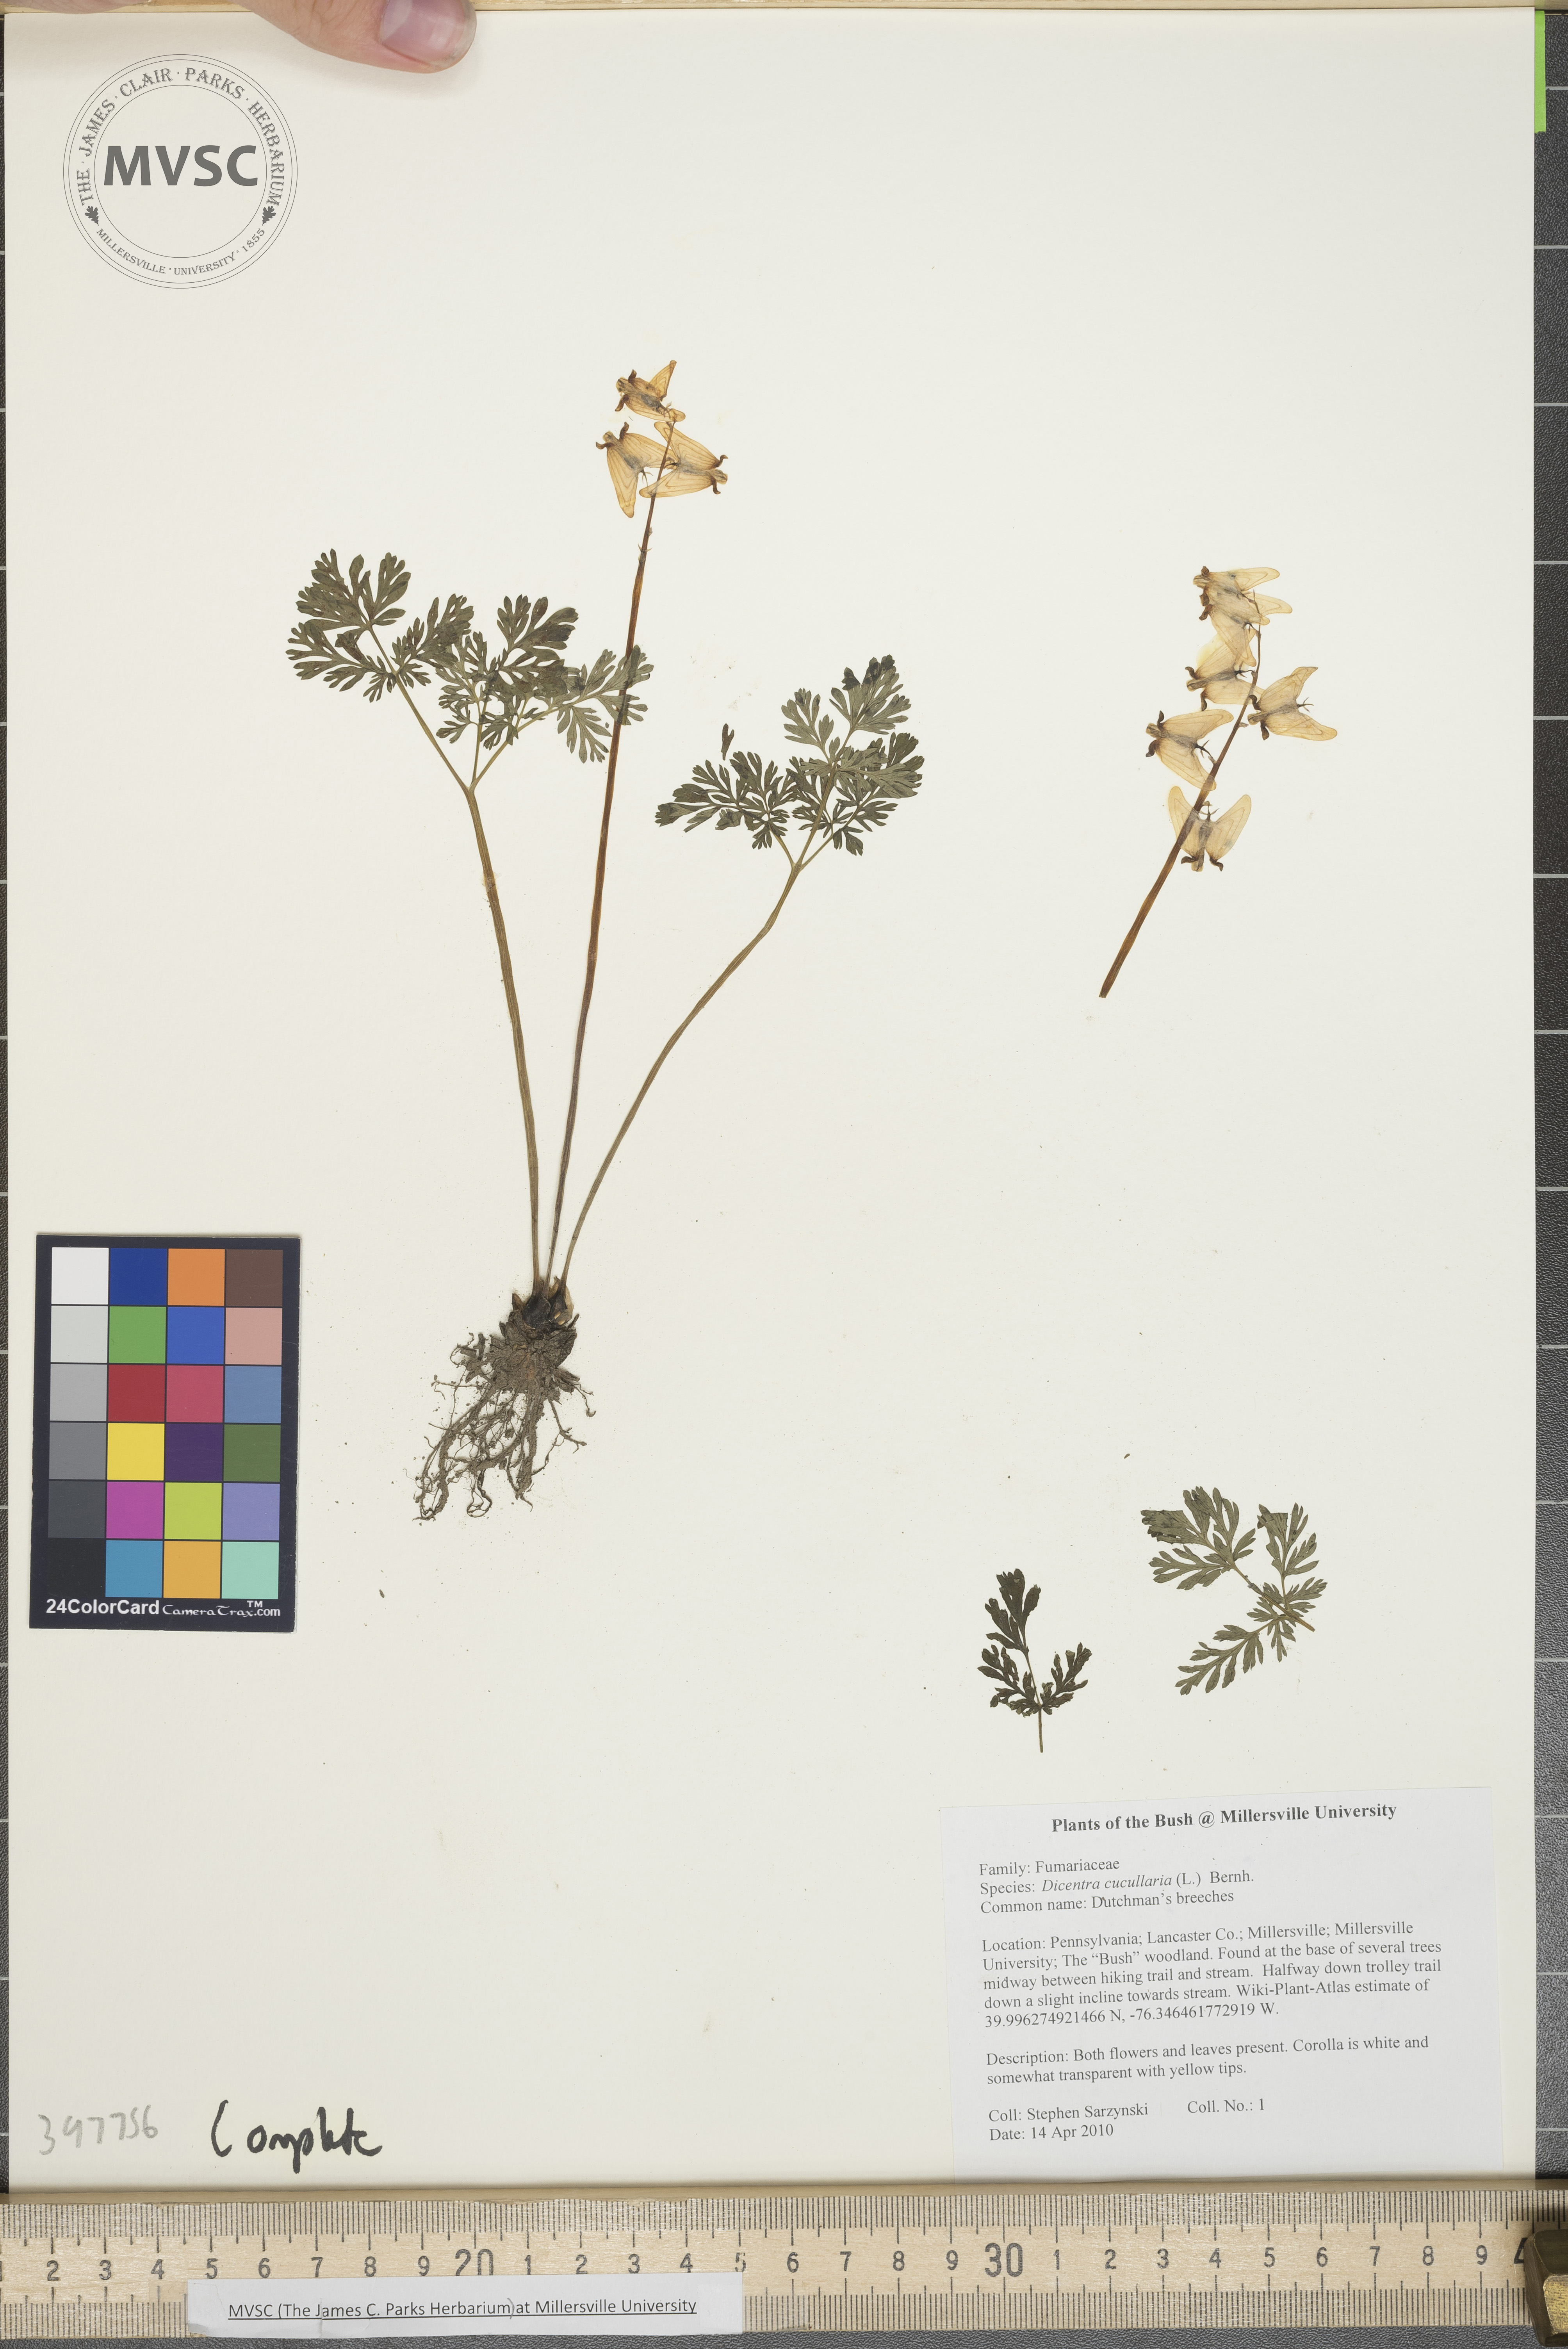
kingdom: Plantae
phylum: Tracheophyta
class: Magnoliopsida
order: Ranunculales
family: Papaveraceae
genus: Dicentra
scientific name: Dicentra cucullaria
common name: Dutchman's-breeches
